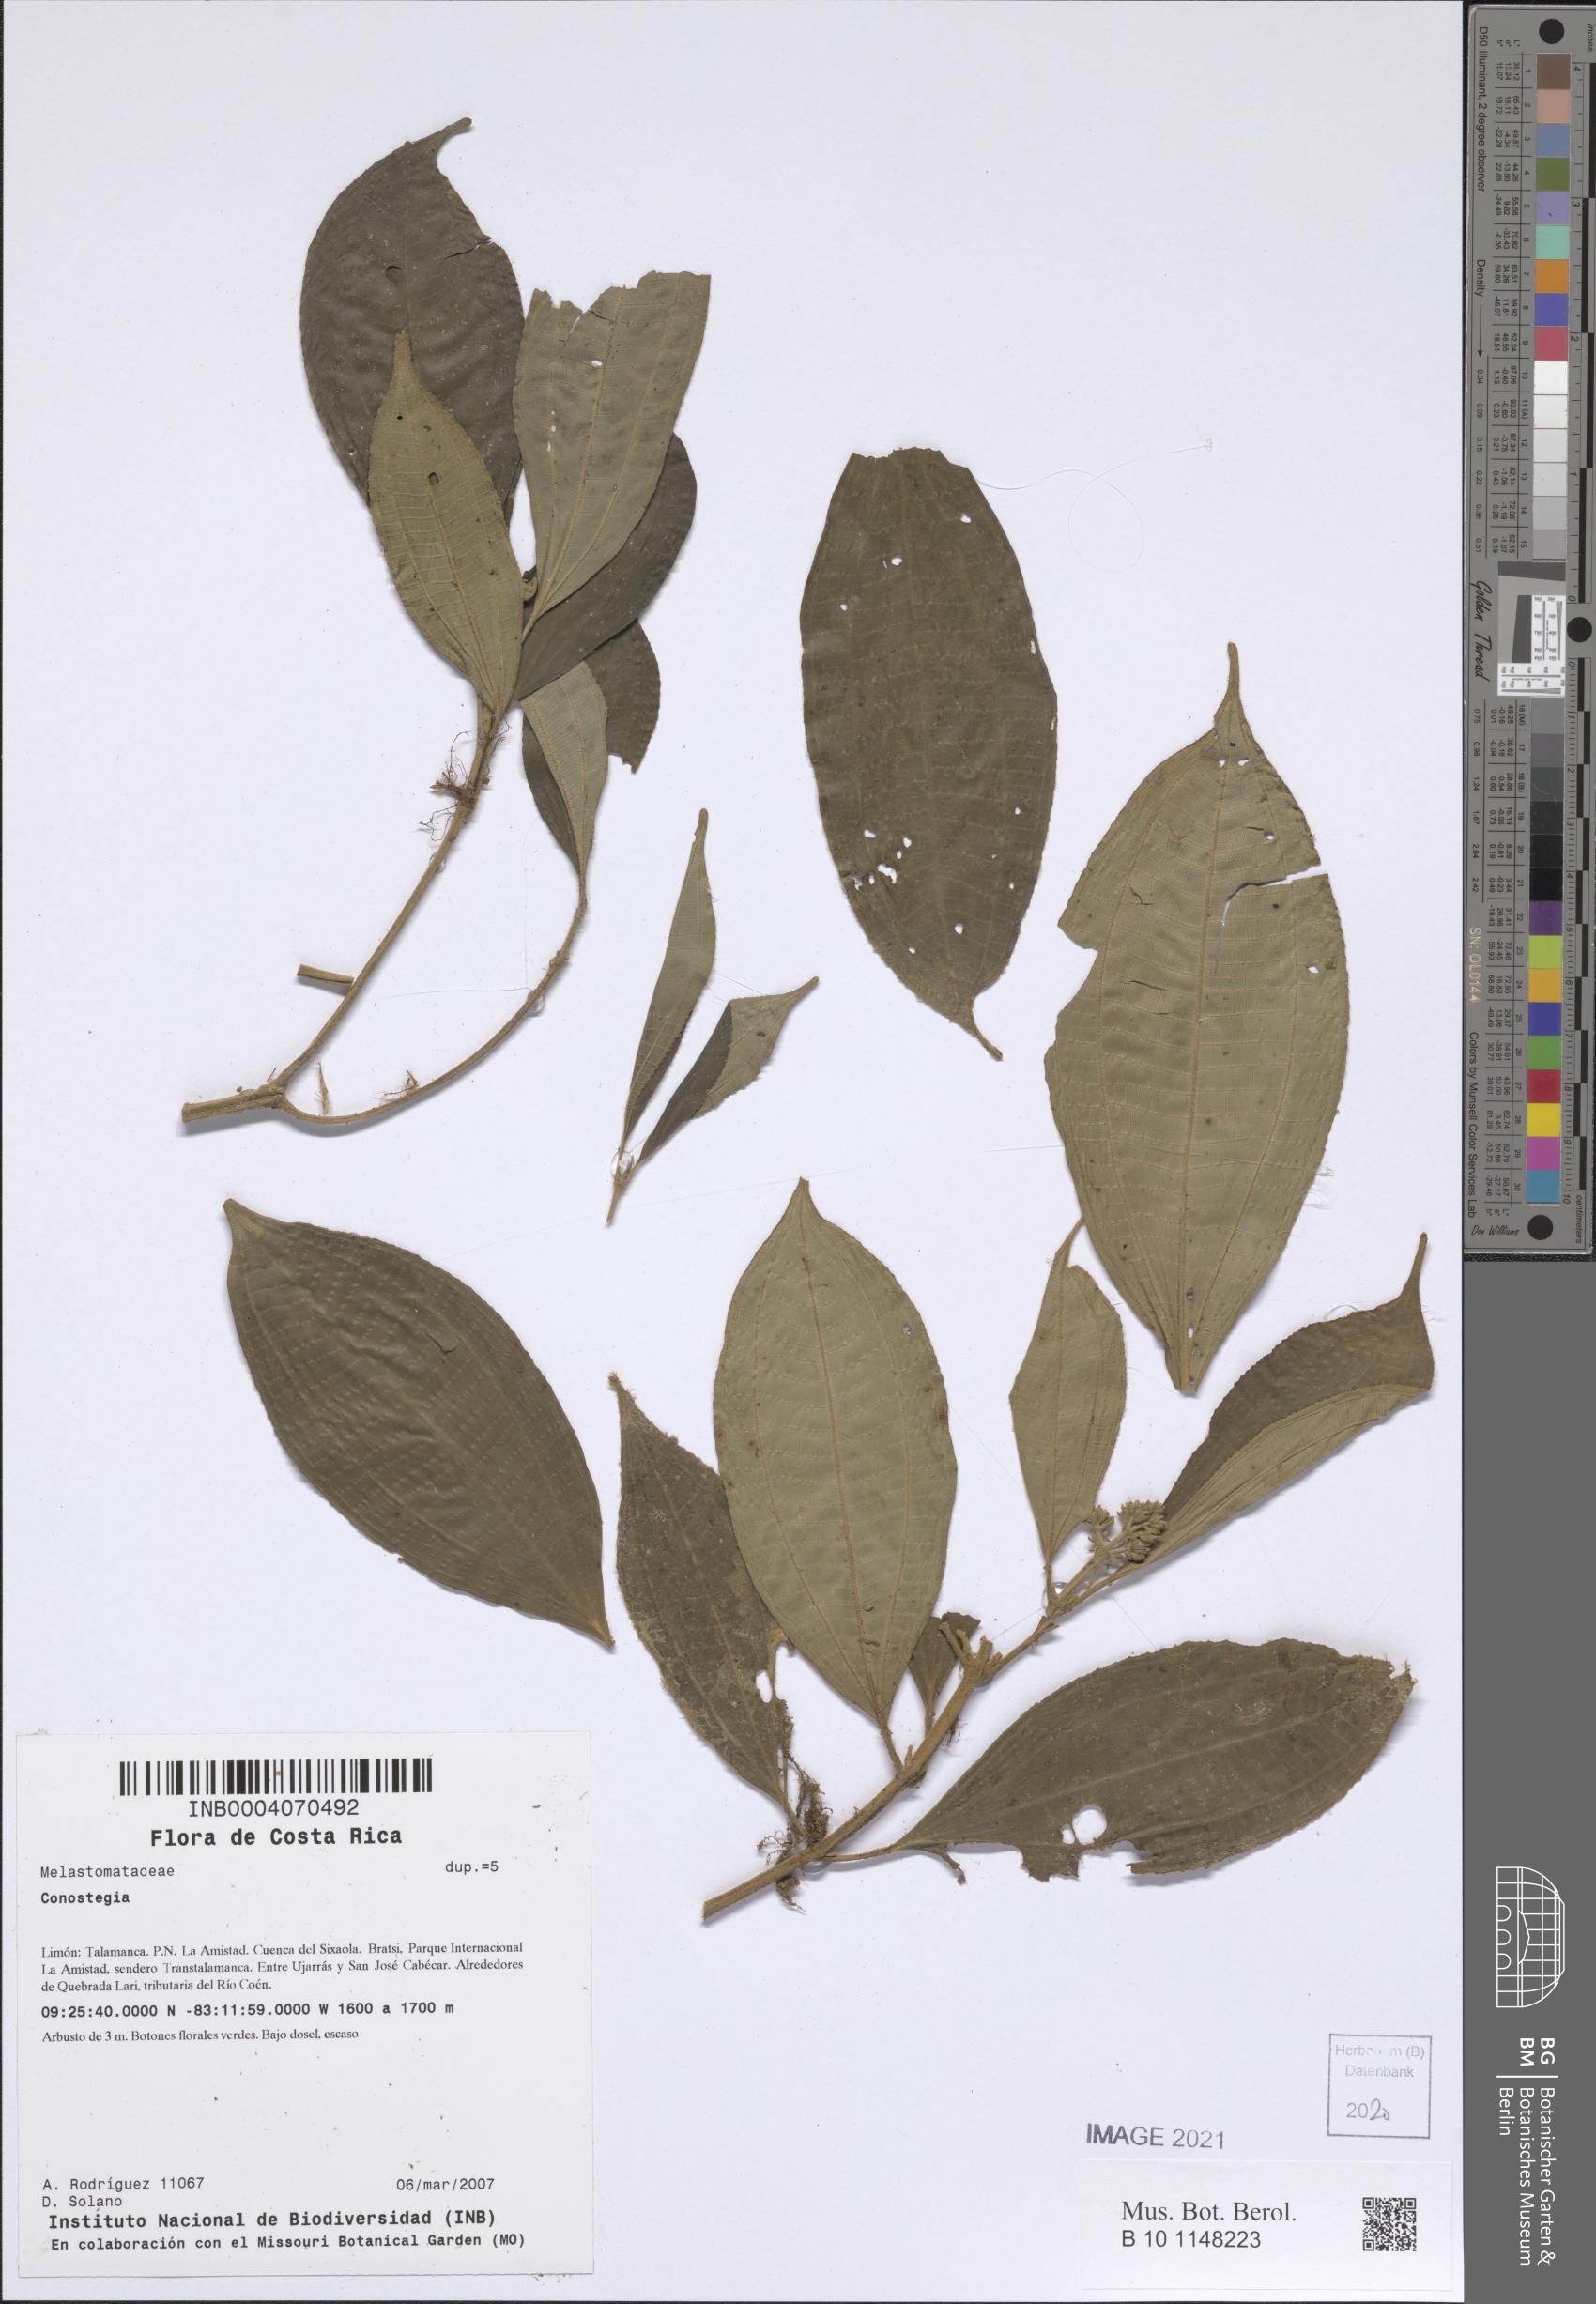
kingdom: Plantae
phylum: Tracheophyta
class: Magnoliopsida
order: Myrtales
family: Melastomataceae
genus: Miconia
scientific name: Miconia
